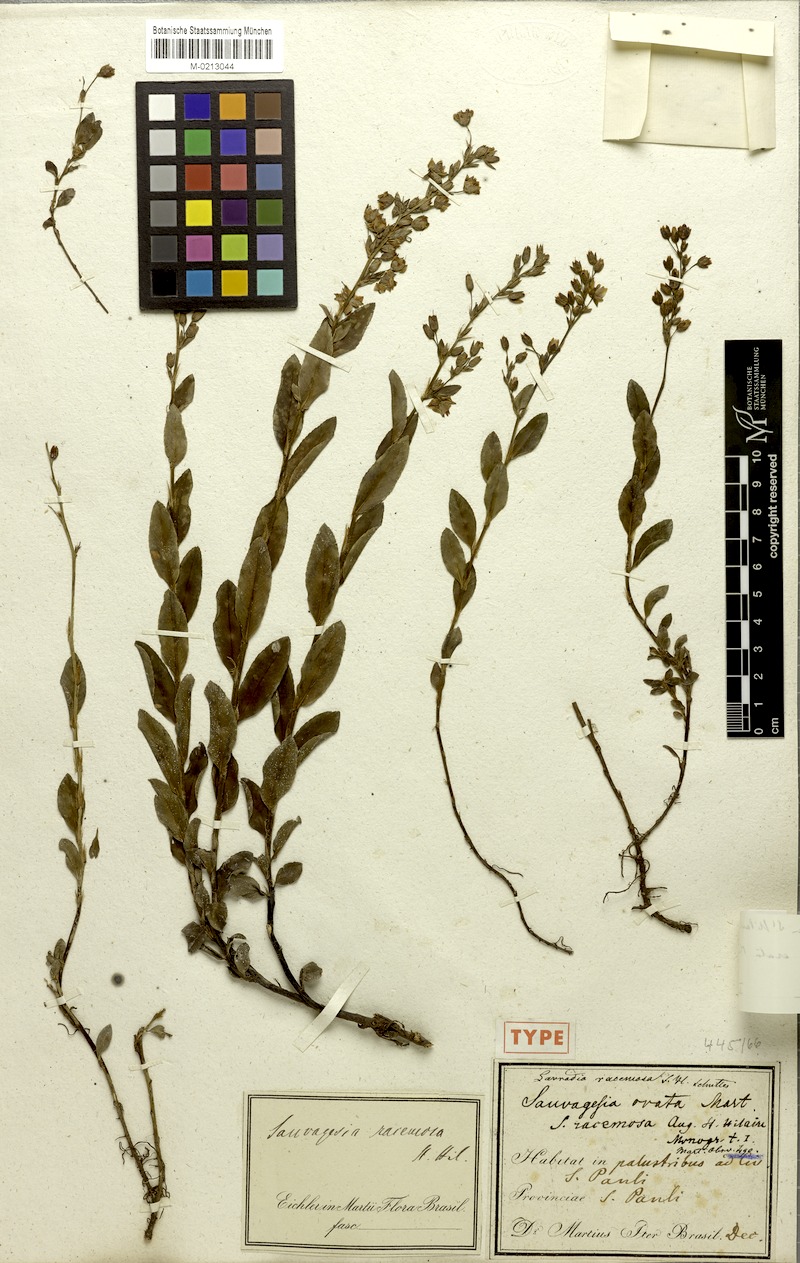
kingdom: Plantae
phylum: Tracheophyta
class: Magnoliopsida
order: Malpighiales
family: Ochnaceae
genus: Sauvagesia
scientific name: Sauvagesia racemosa
